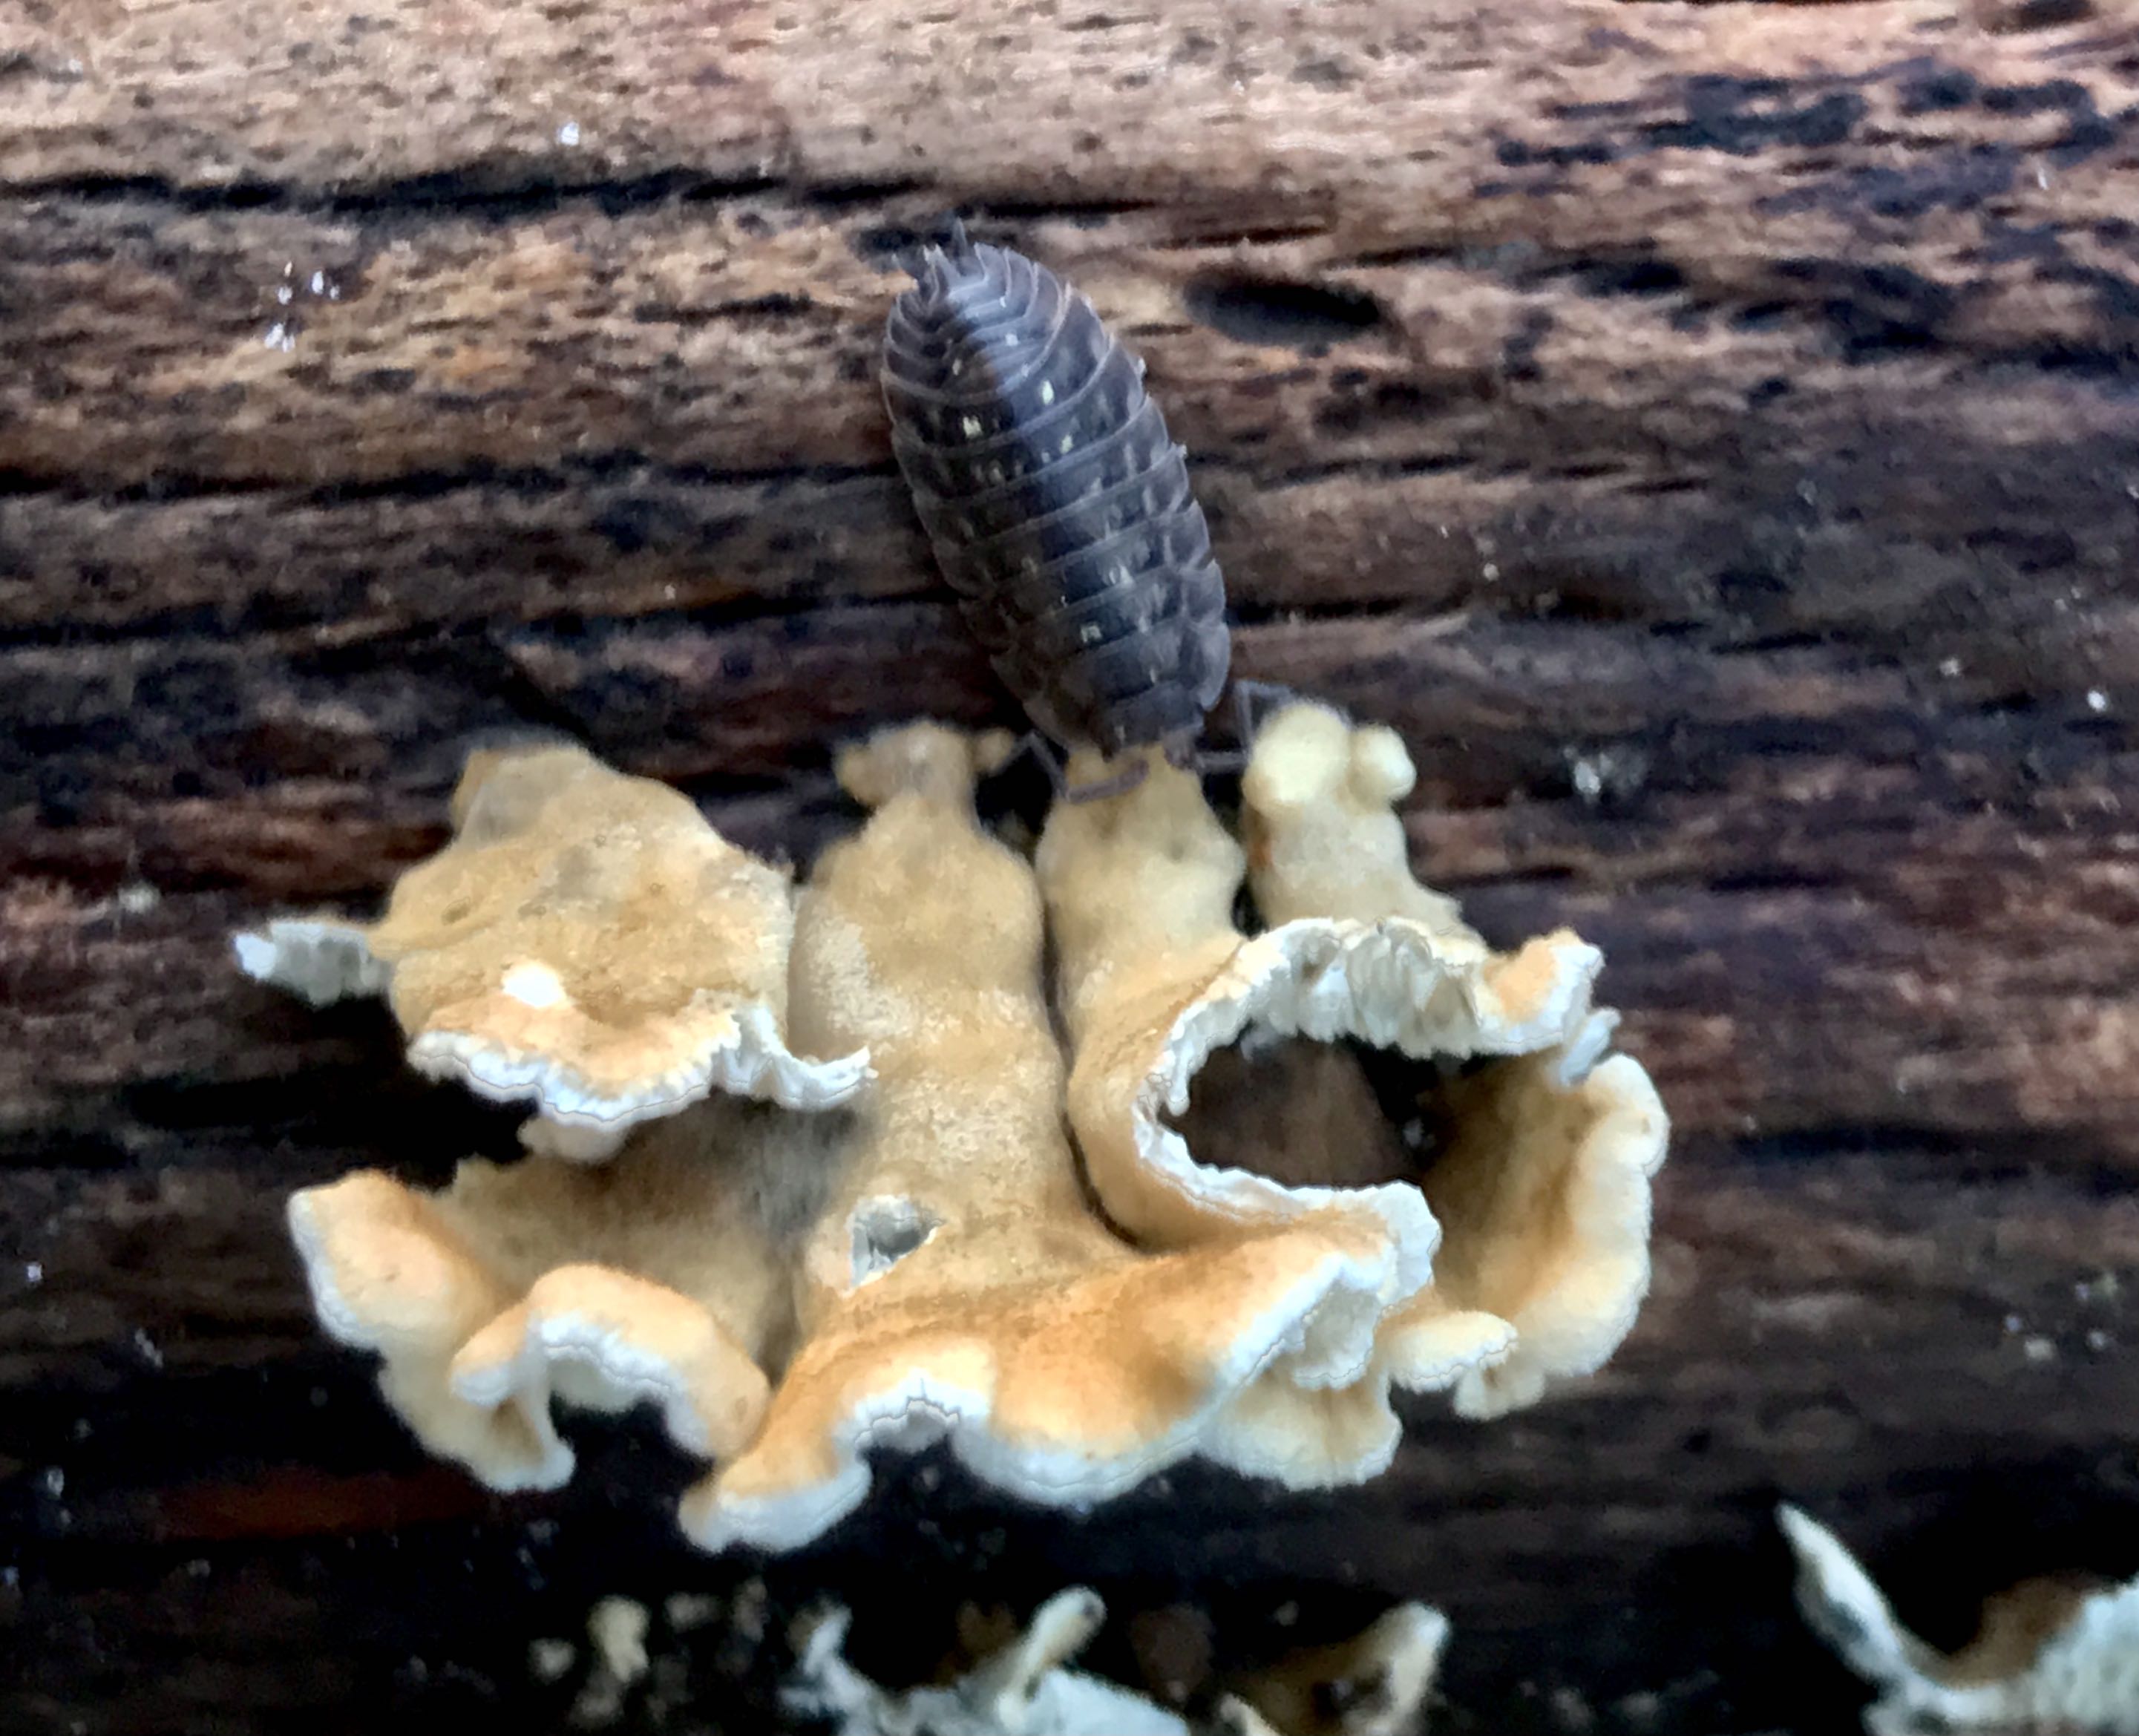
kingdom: Fungi
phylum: Basidiomycota
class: Agaricomycetes
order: Amylocorticiales
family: Amylocorticiaceae
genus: Plicaturopsis
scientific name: Plicaturopsis crispa
